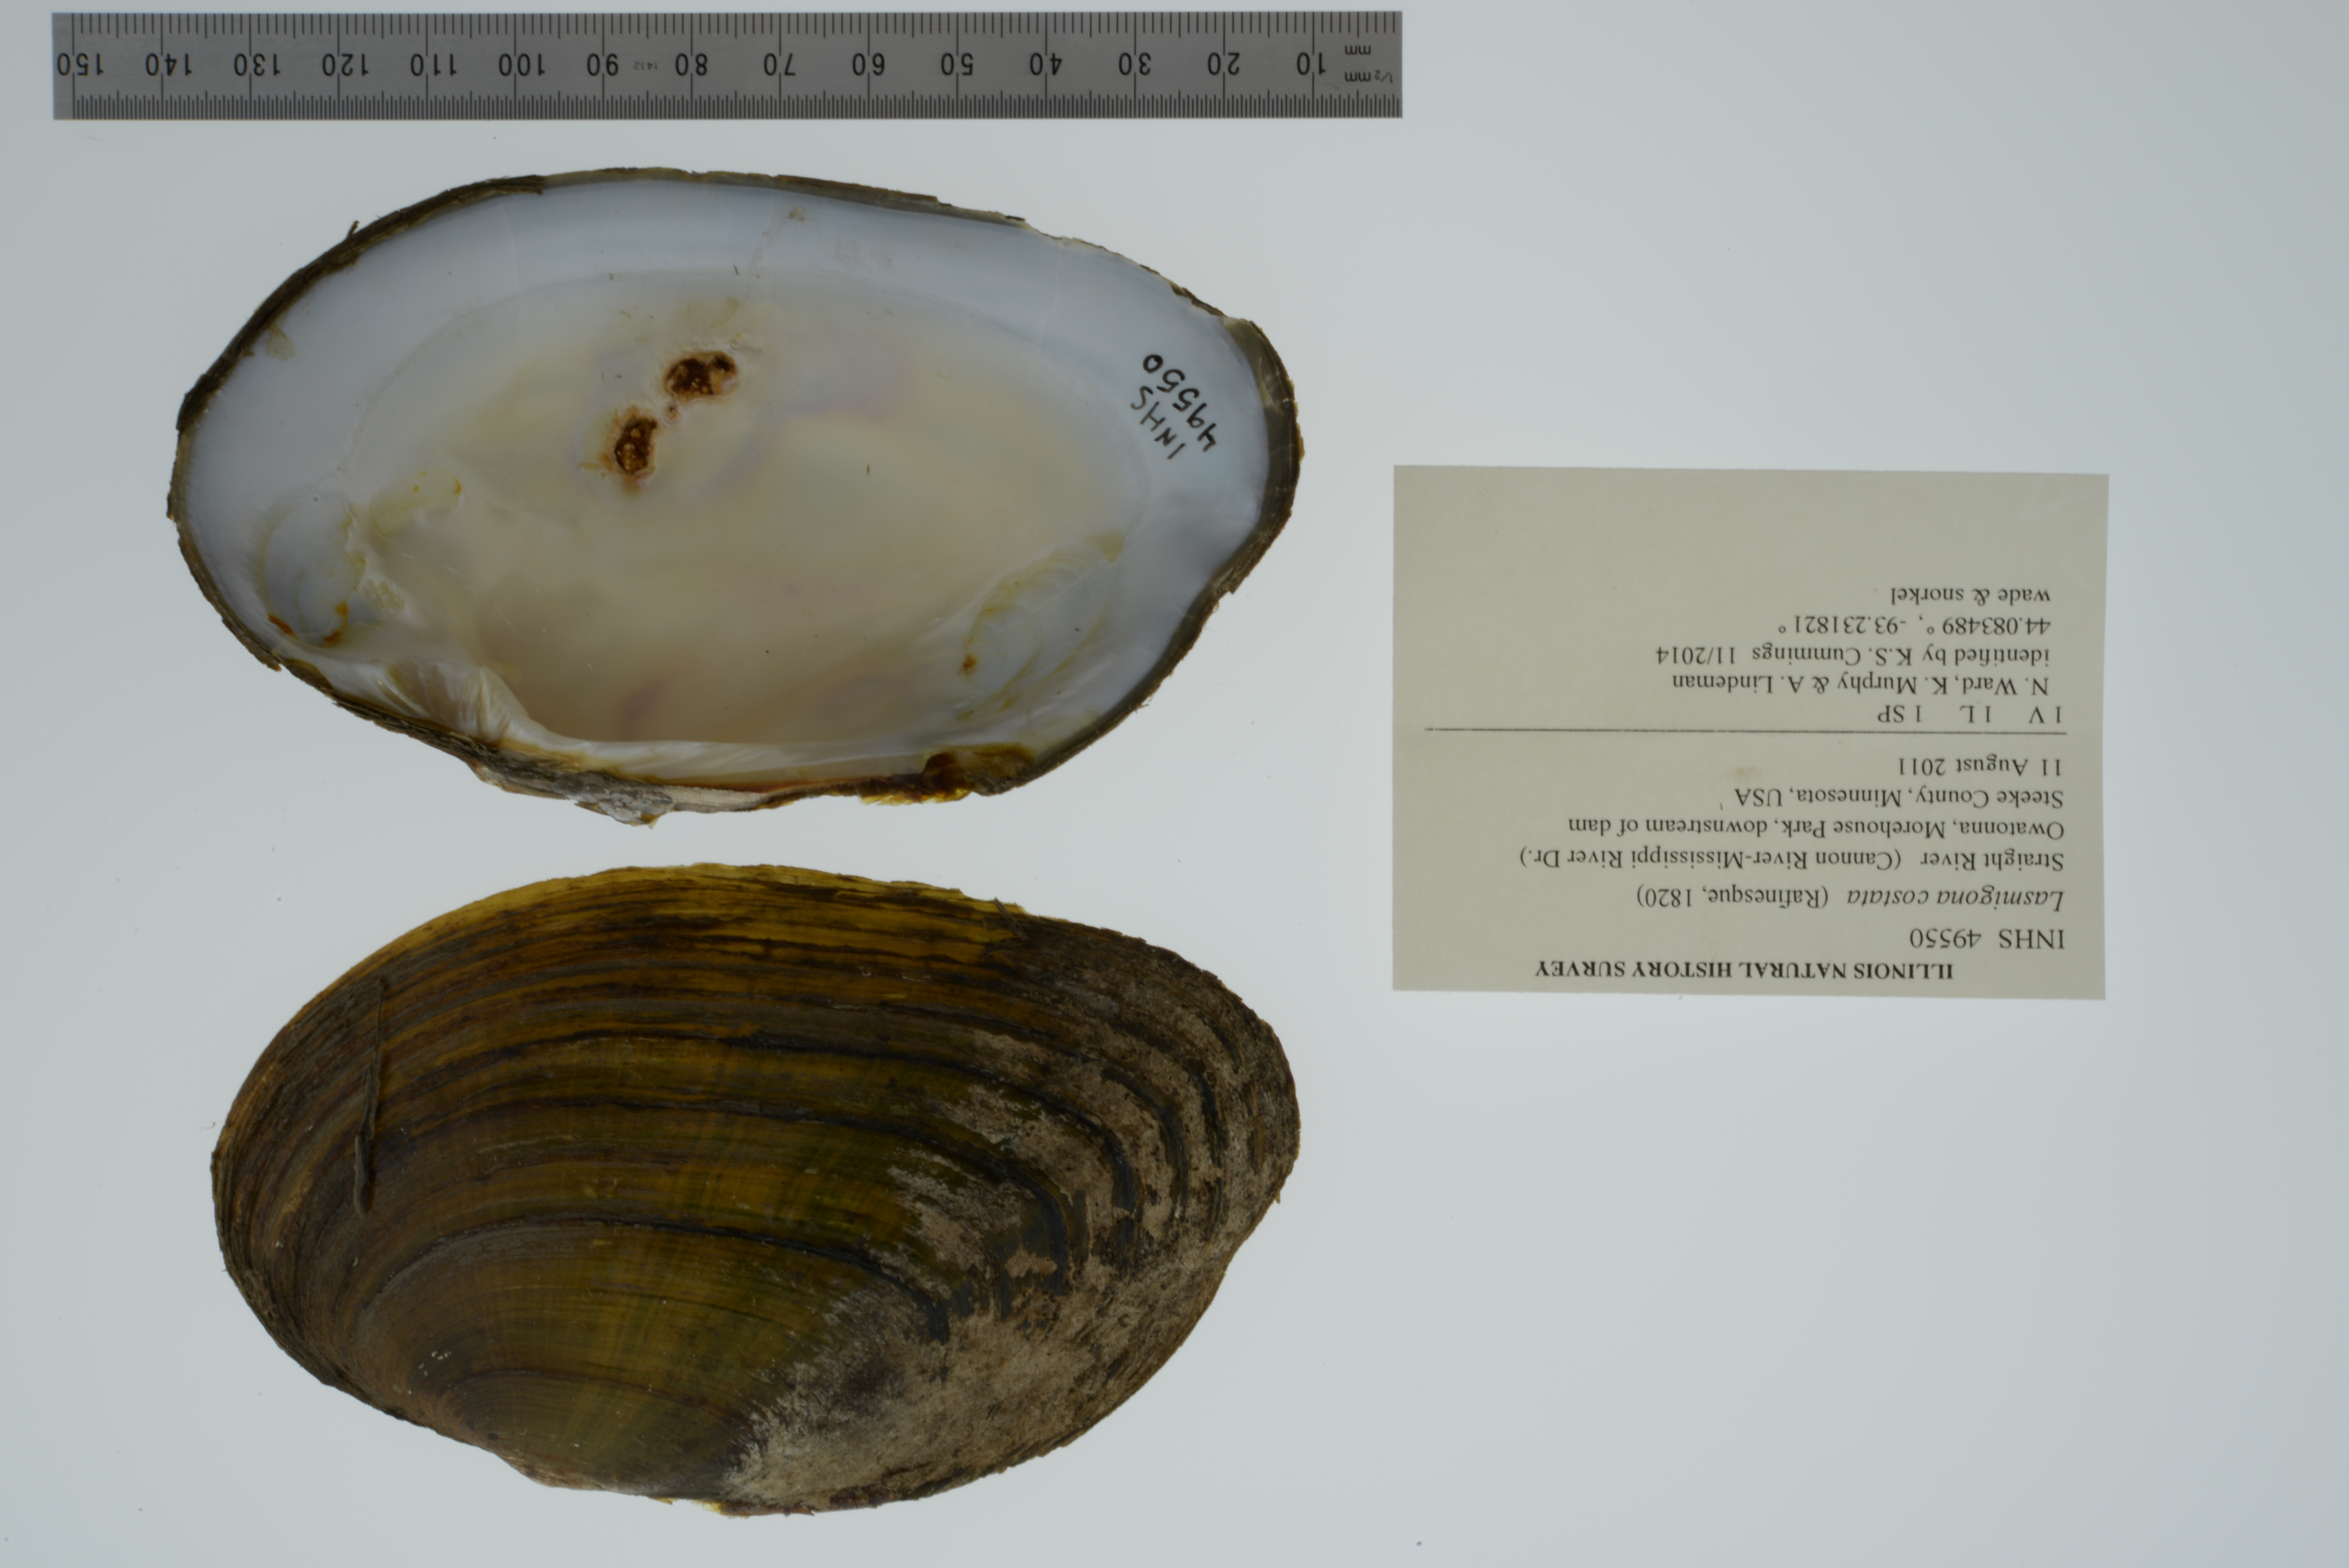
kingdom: Animalia
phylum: Mollusca
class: Bivalvia
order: Unionida
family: Unionidae
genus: Lasmigona
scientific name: Lasmigona costata
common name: Flutedshell
